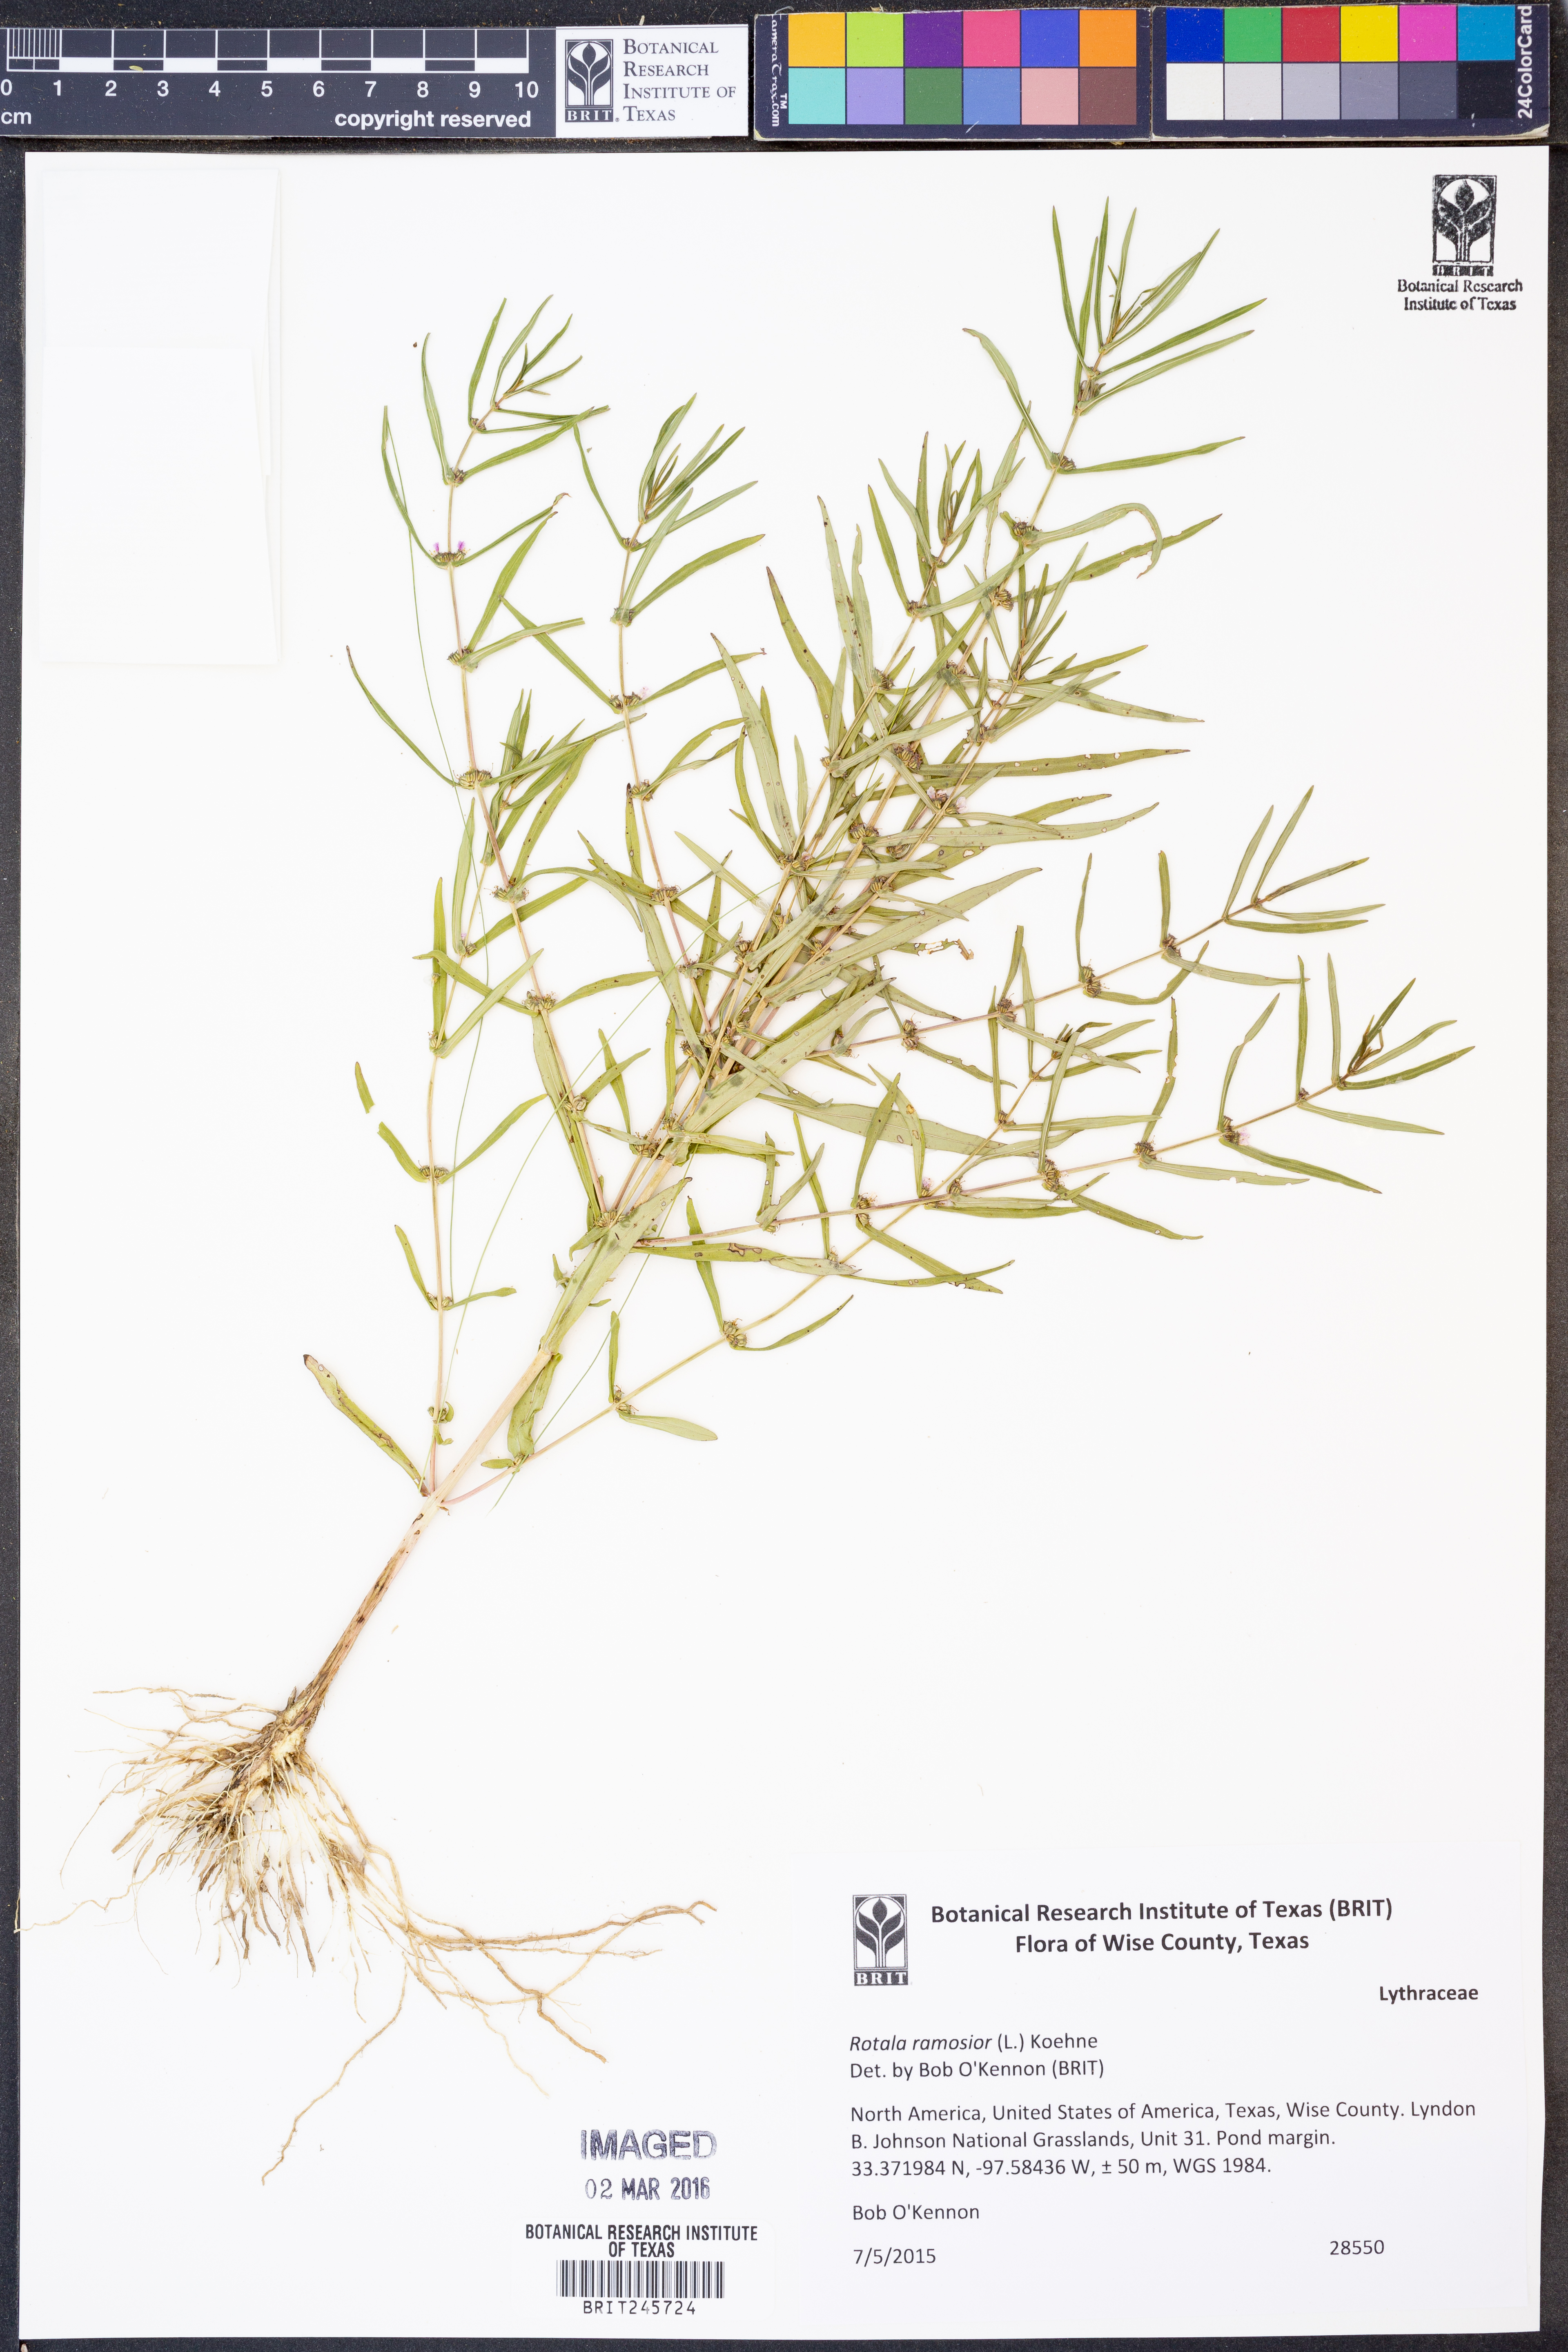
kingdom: Plantae
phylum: Tracheophyta
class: Magnoliopsida
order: Myrtales
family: Lythraceae
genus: Rotala
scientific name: Rotala ramosior
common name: Lowland rotala
